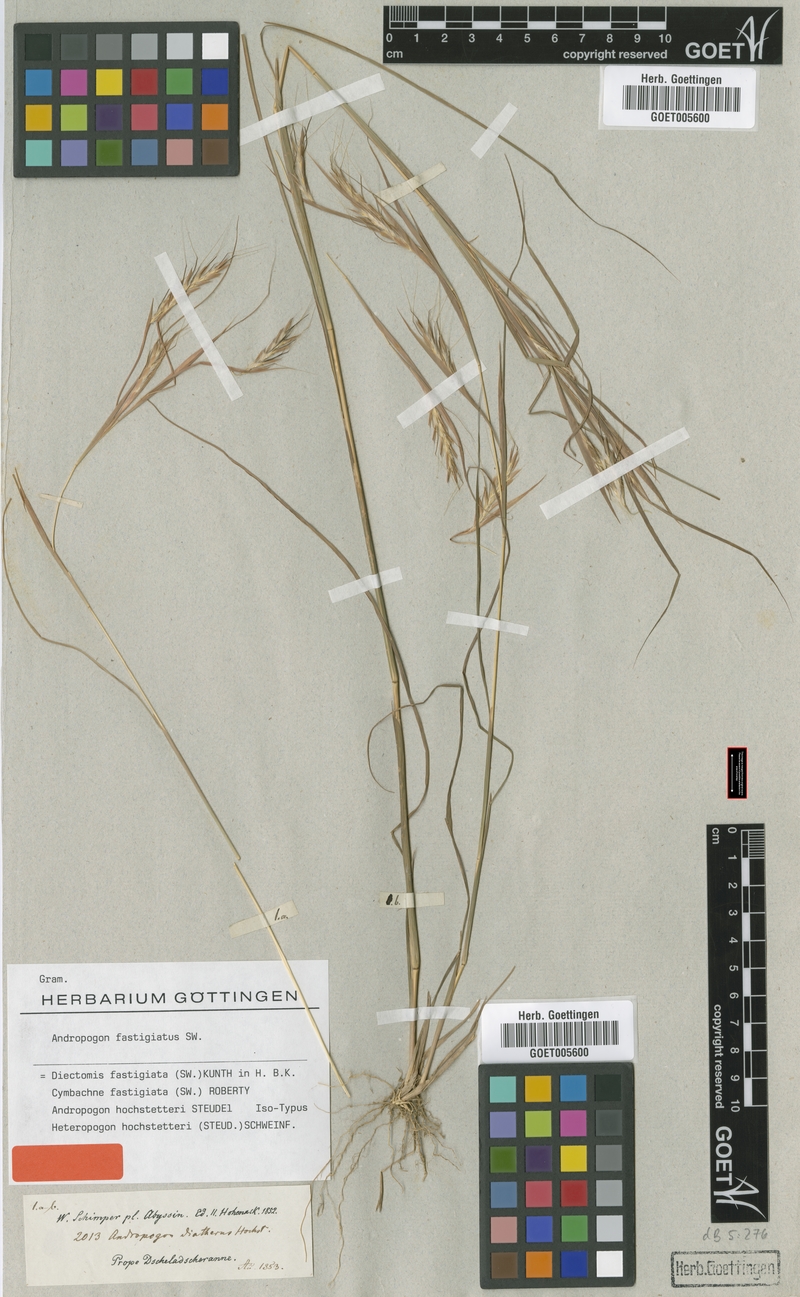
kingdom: Plantae
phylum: Tracheophyta
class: Liliopsida
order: Poales
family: Poaceae
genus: Diectomis
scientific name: Diectomis fastigiata
